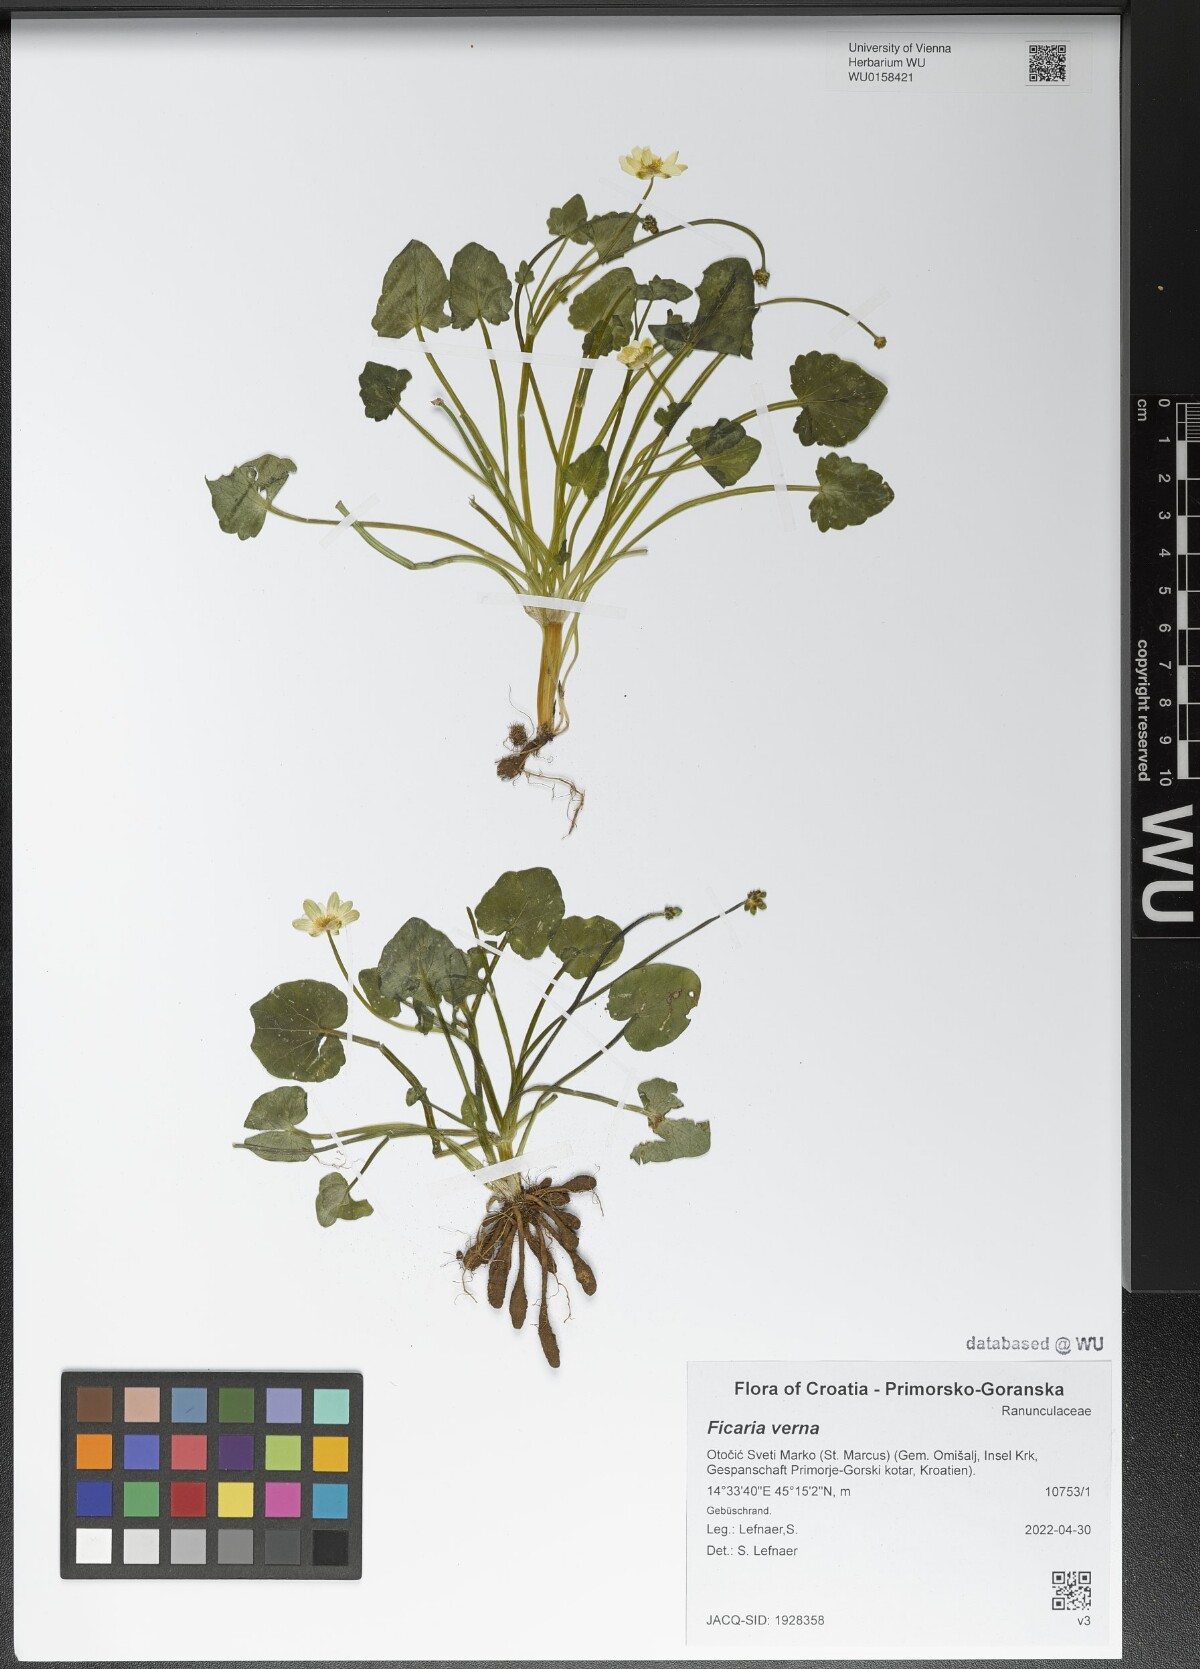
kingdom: Plantae
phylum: Tracheophyta
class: Magnoliopsida
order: Ranunculales
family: Ranunculaceae
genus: Ficaria
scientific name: Ficaria verna
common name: Lesser celandine
